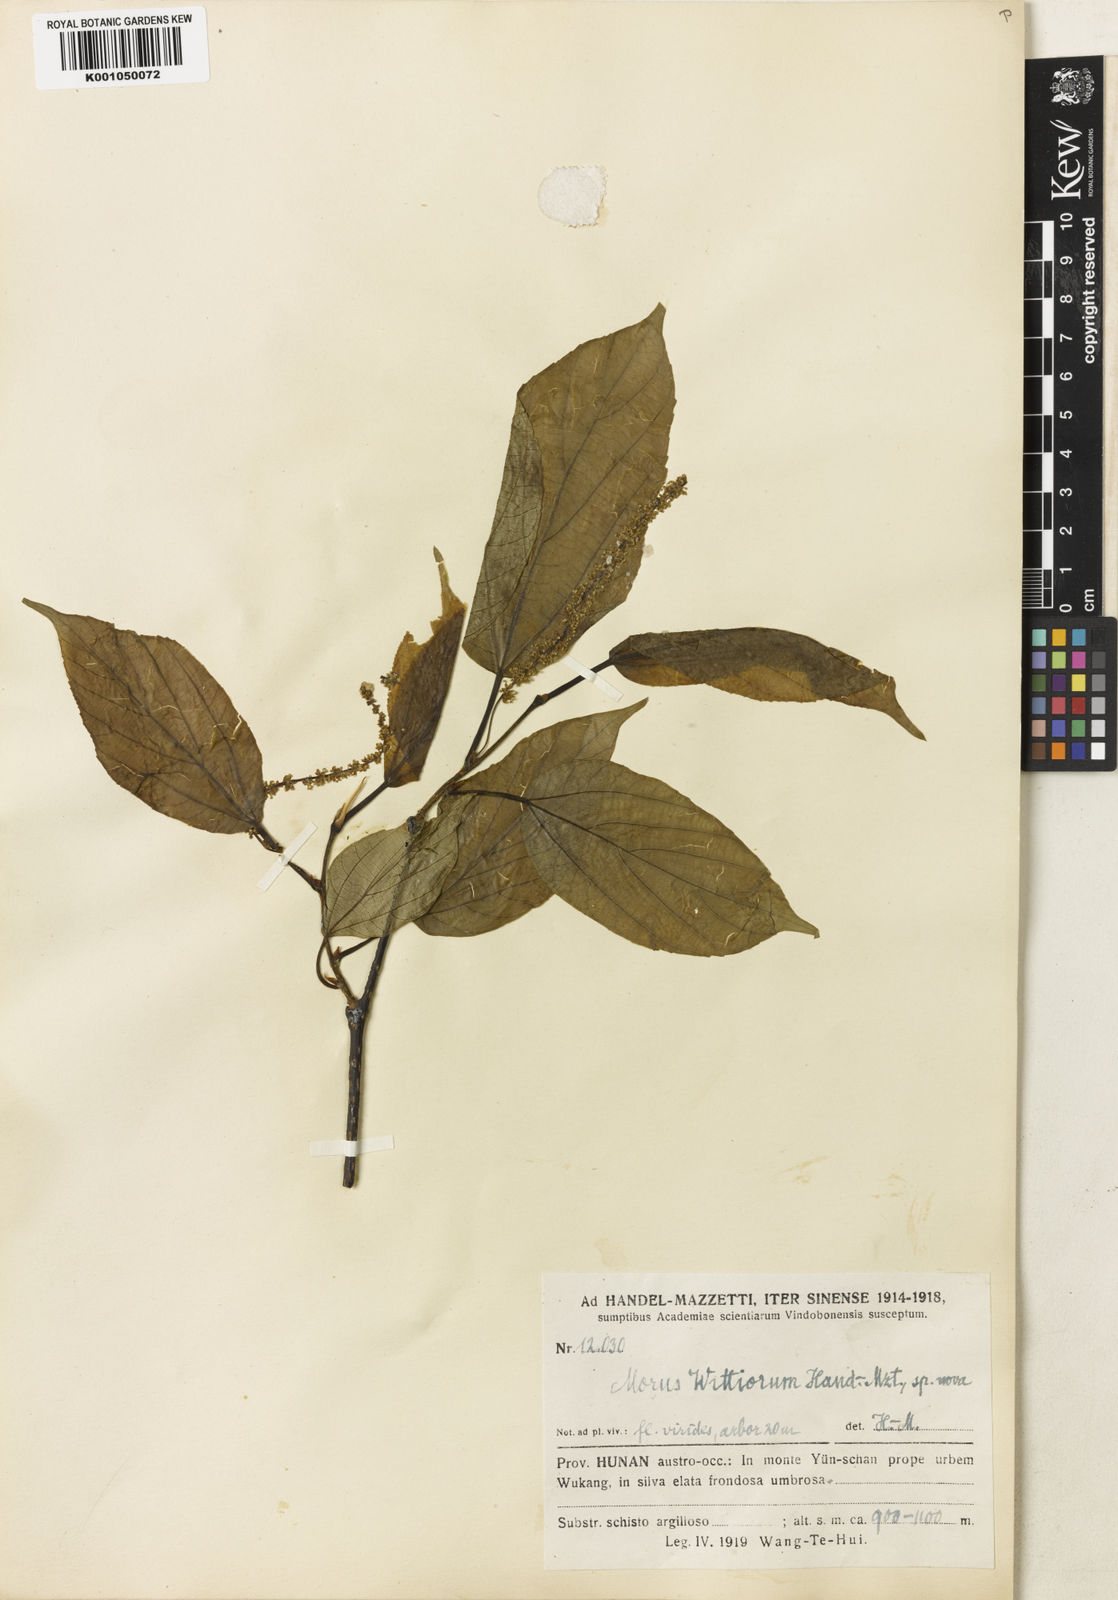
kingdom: Plantae
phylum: Tracheophyta
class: Magnoliopsida
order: Rosales
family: Moraceae
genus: Morus
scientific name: Morus wittiorum
